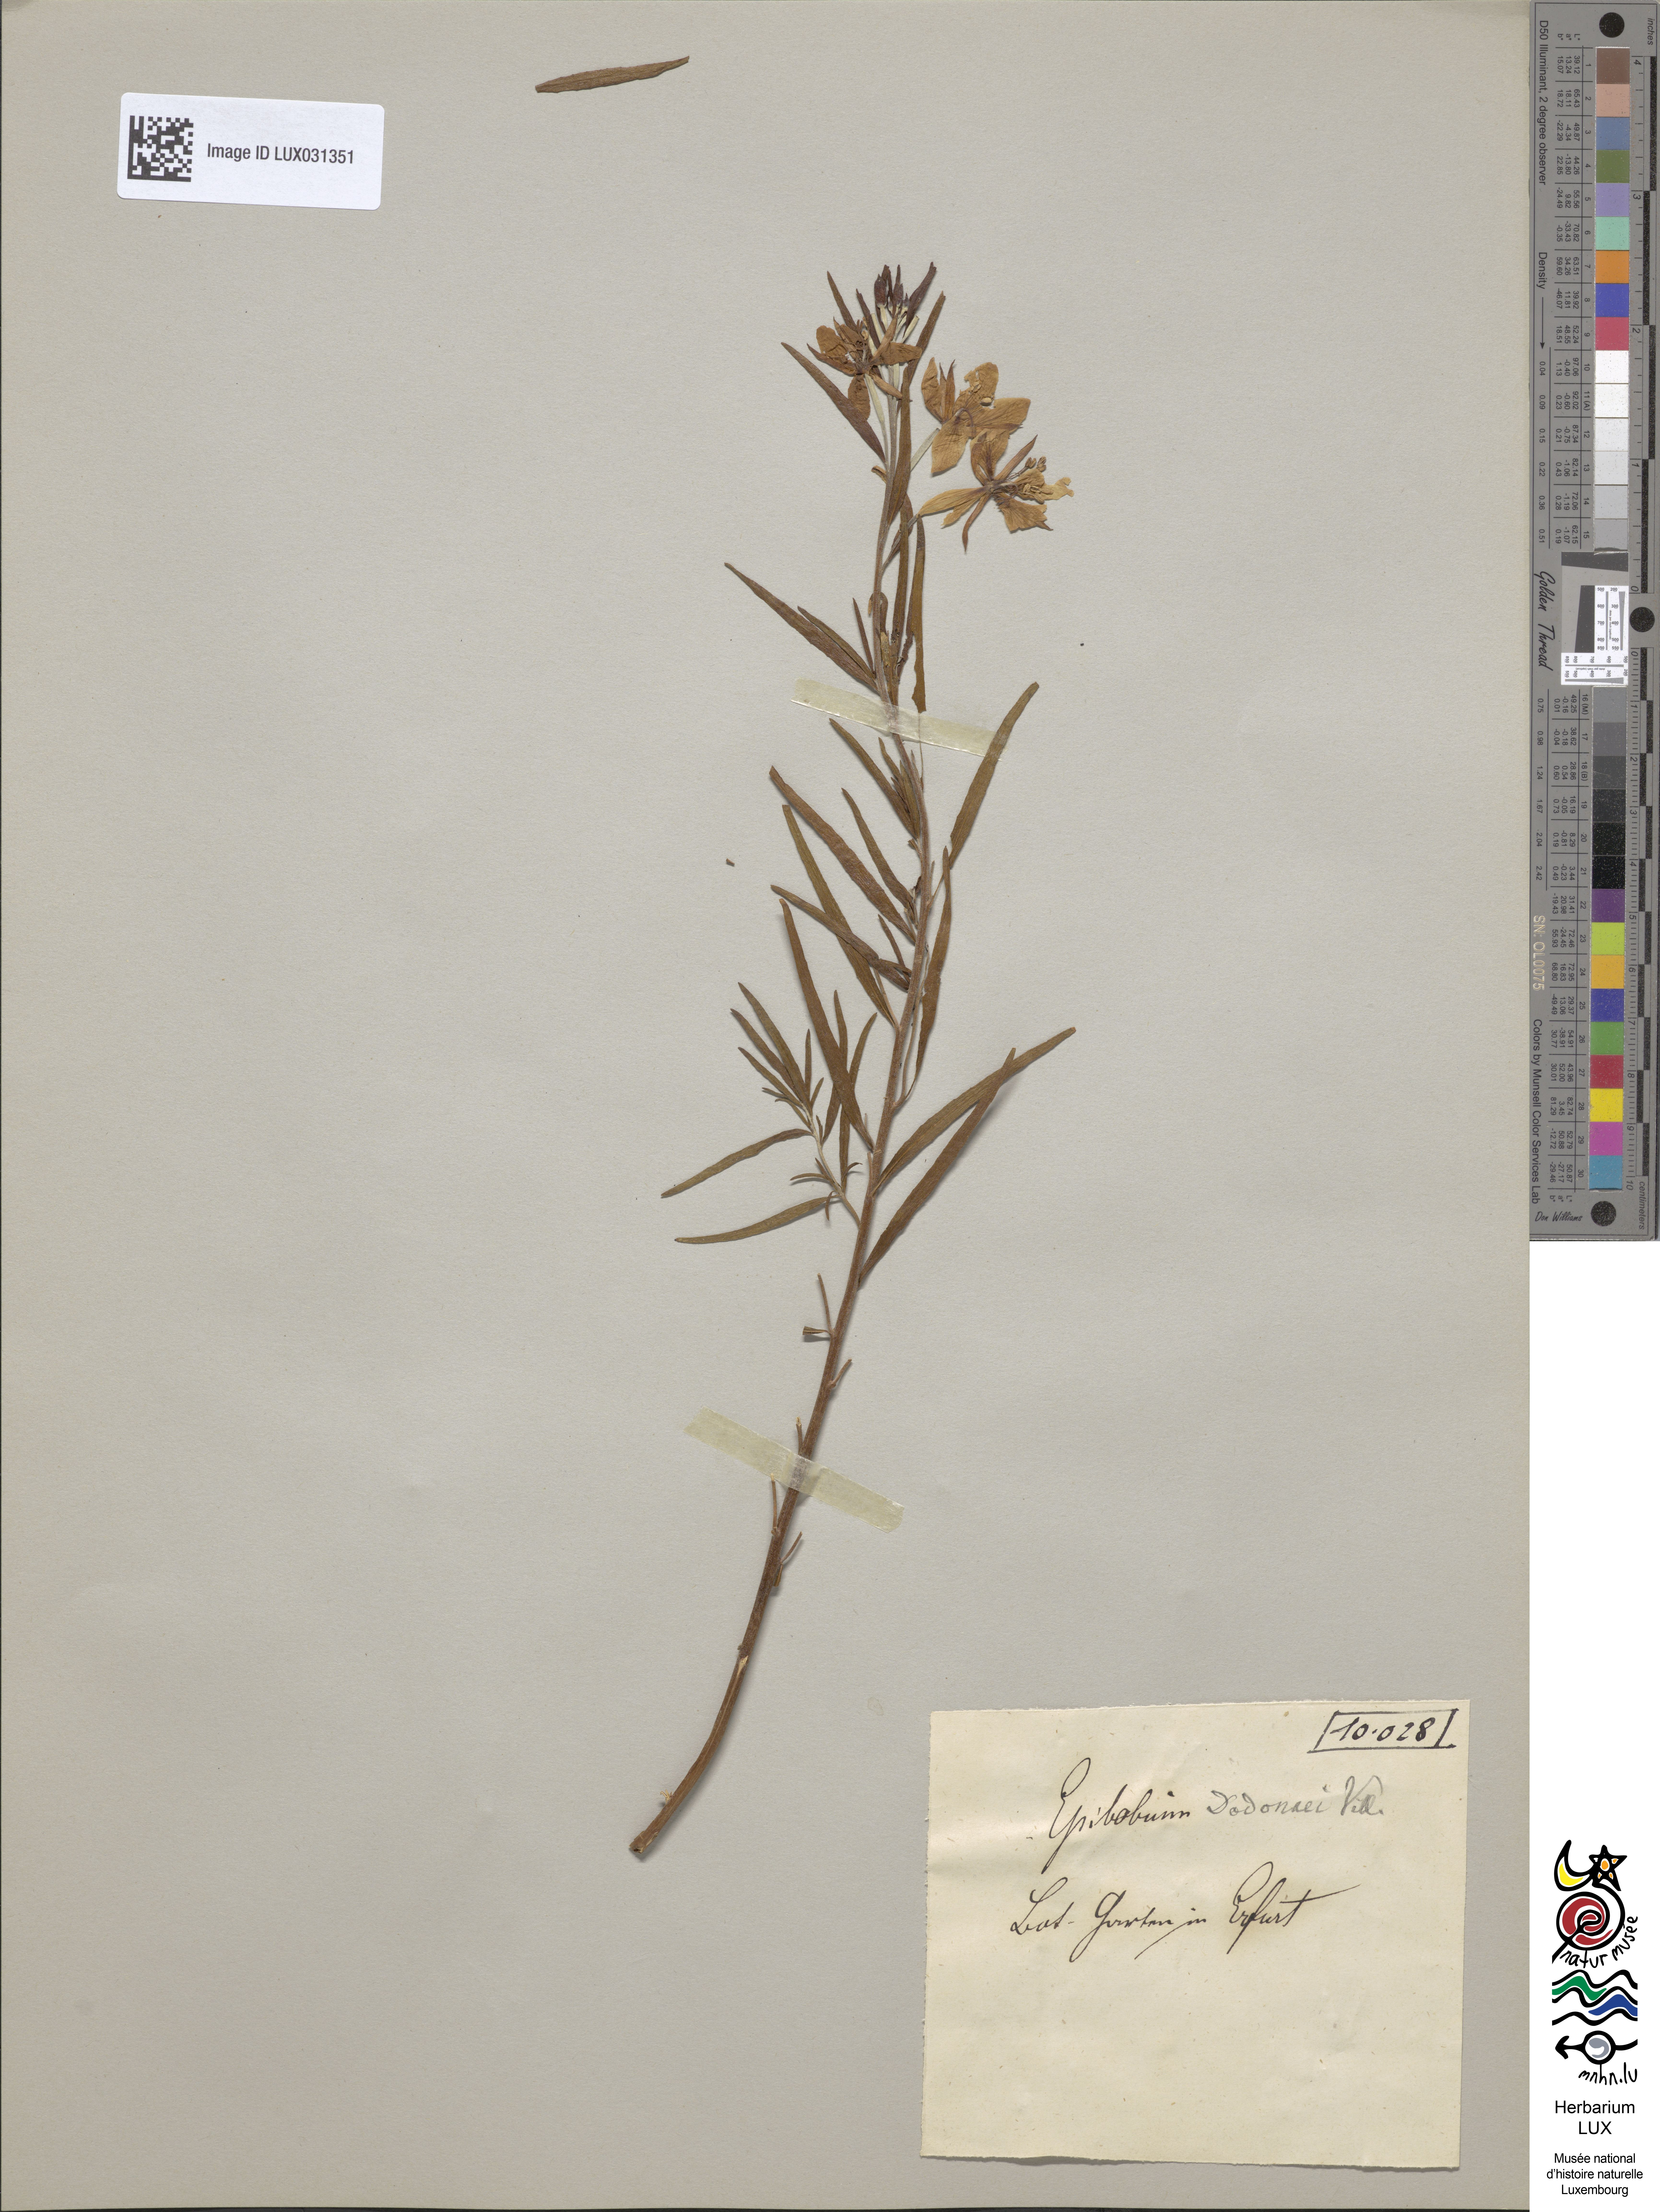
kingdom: Plantae
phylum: Tracheophyta
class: Magnoliopsida
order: Myrtales
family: Onagraceae
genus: Chamaenerion
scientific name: Chamaenerion dodonaei
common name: Rosemary-leaved willowherb
